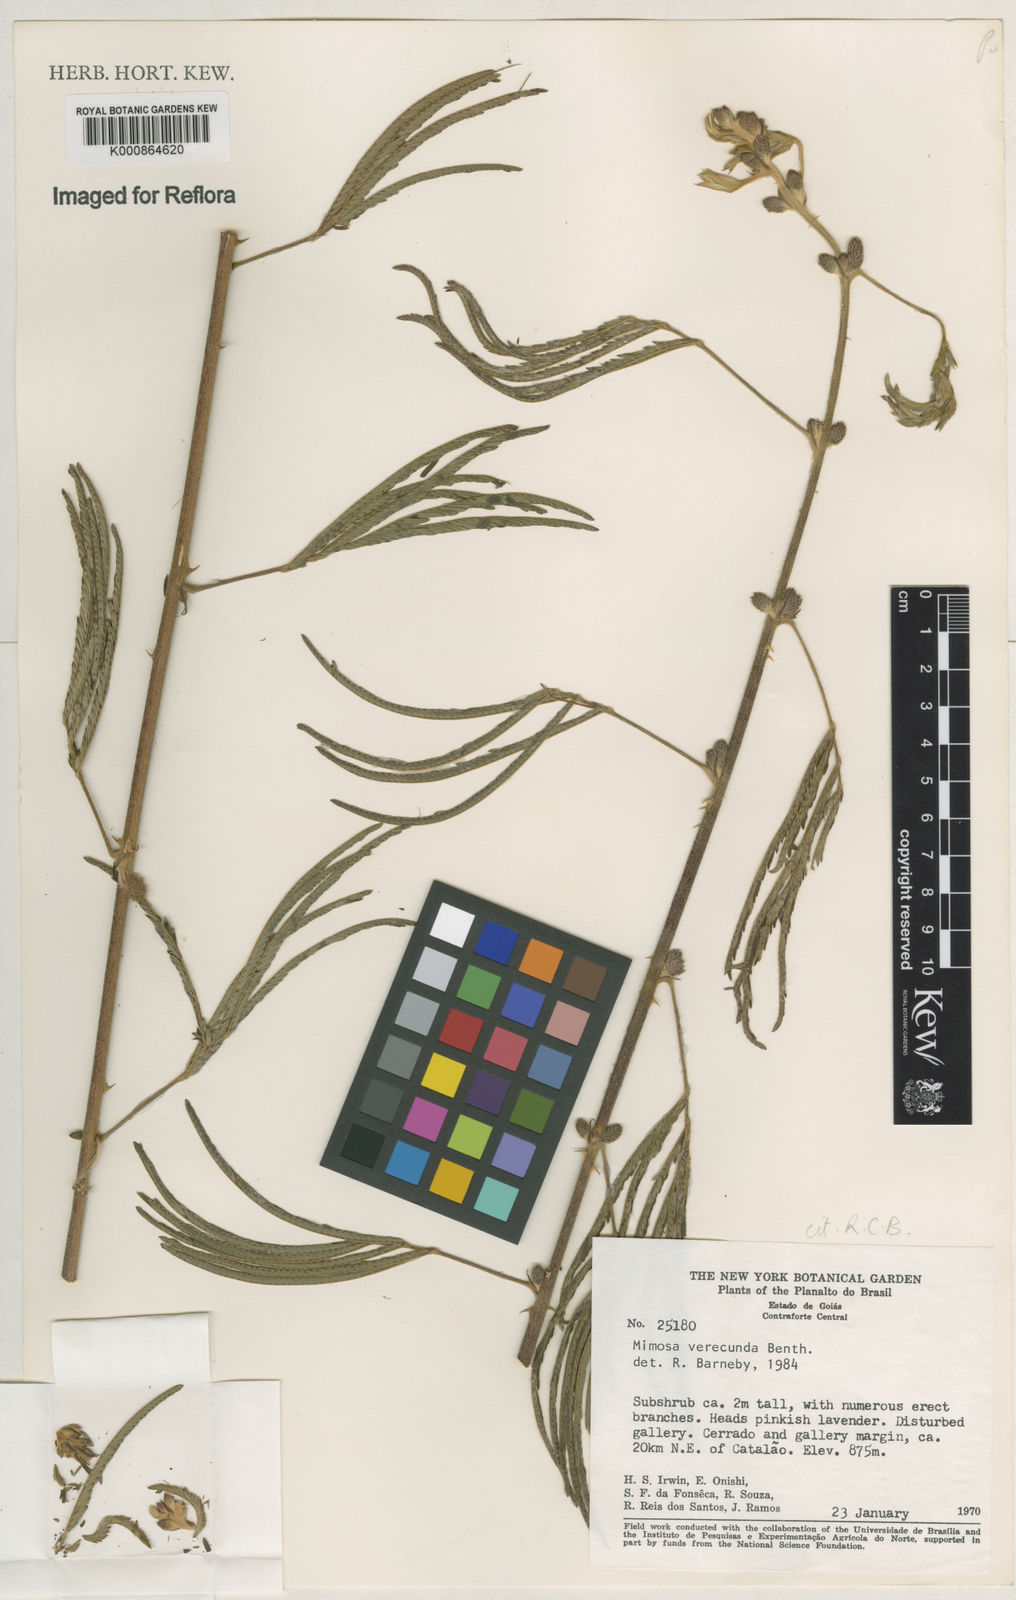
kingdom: Plantae
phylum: Tracheophyta
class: Magnoliopsida
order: Fabales
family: Fabaceae
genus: Mimosa
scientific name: Mimosa verecunda
